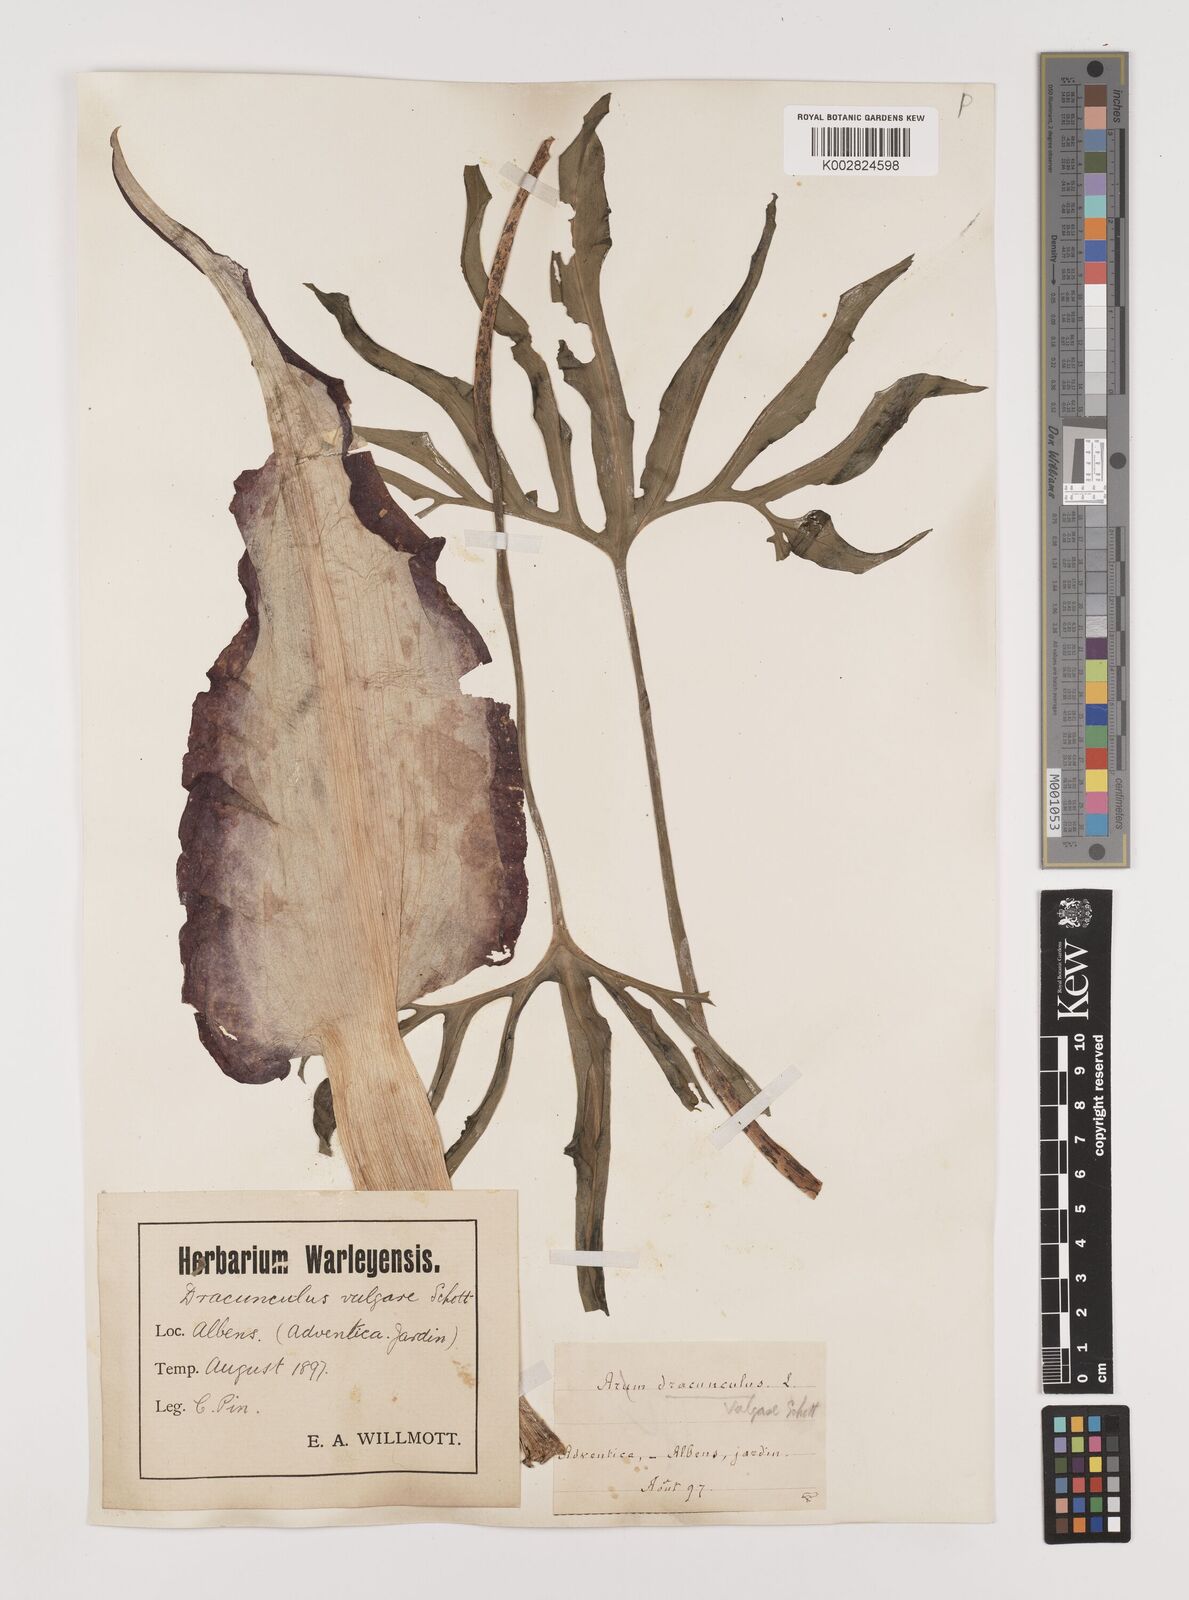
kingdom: Plantae
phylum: Tracheophyta
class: Liliopsida
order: Alismatales
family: Araceae
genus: Dracunculus
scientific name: Dracunculus vulgaris
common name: Dragon arum
